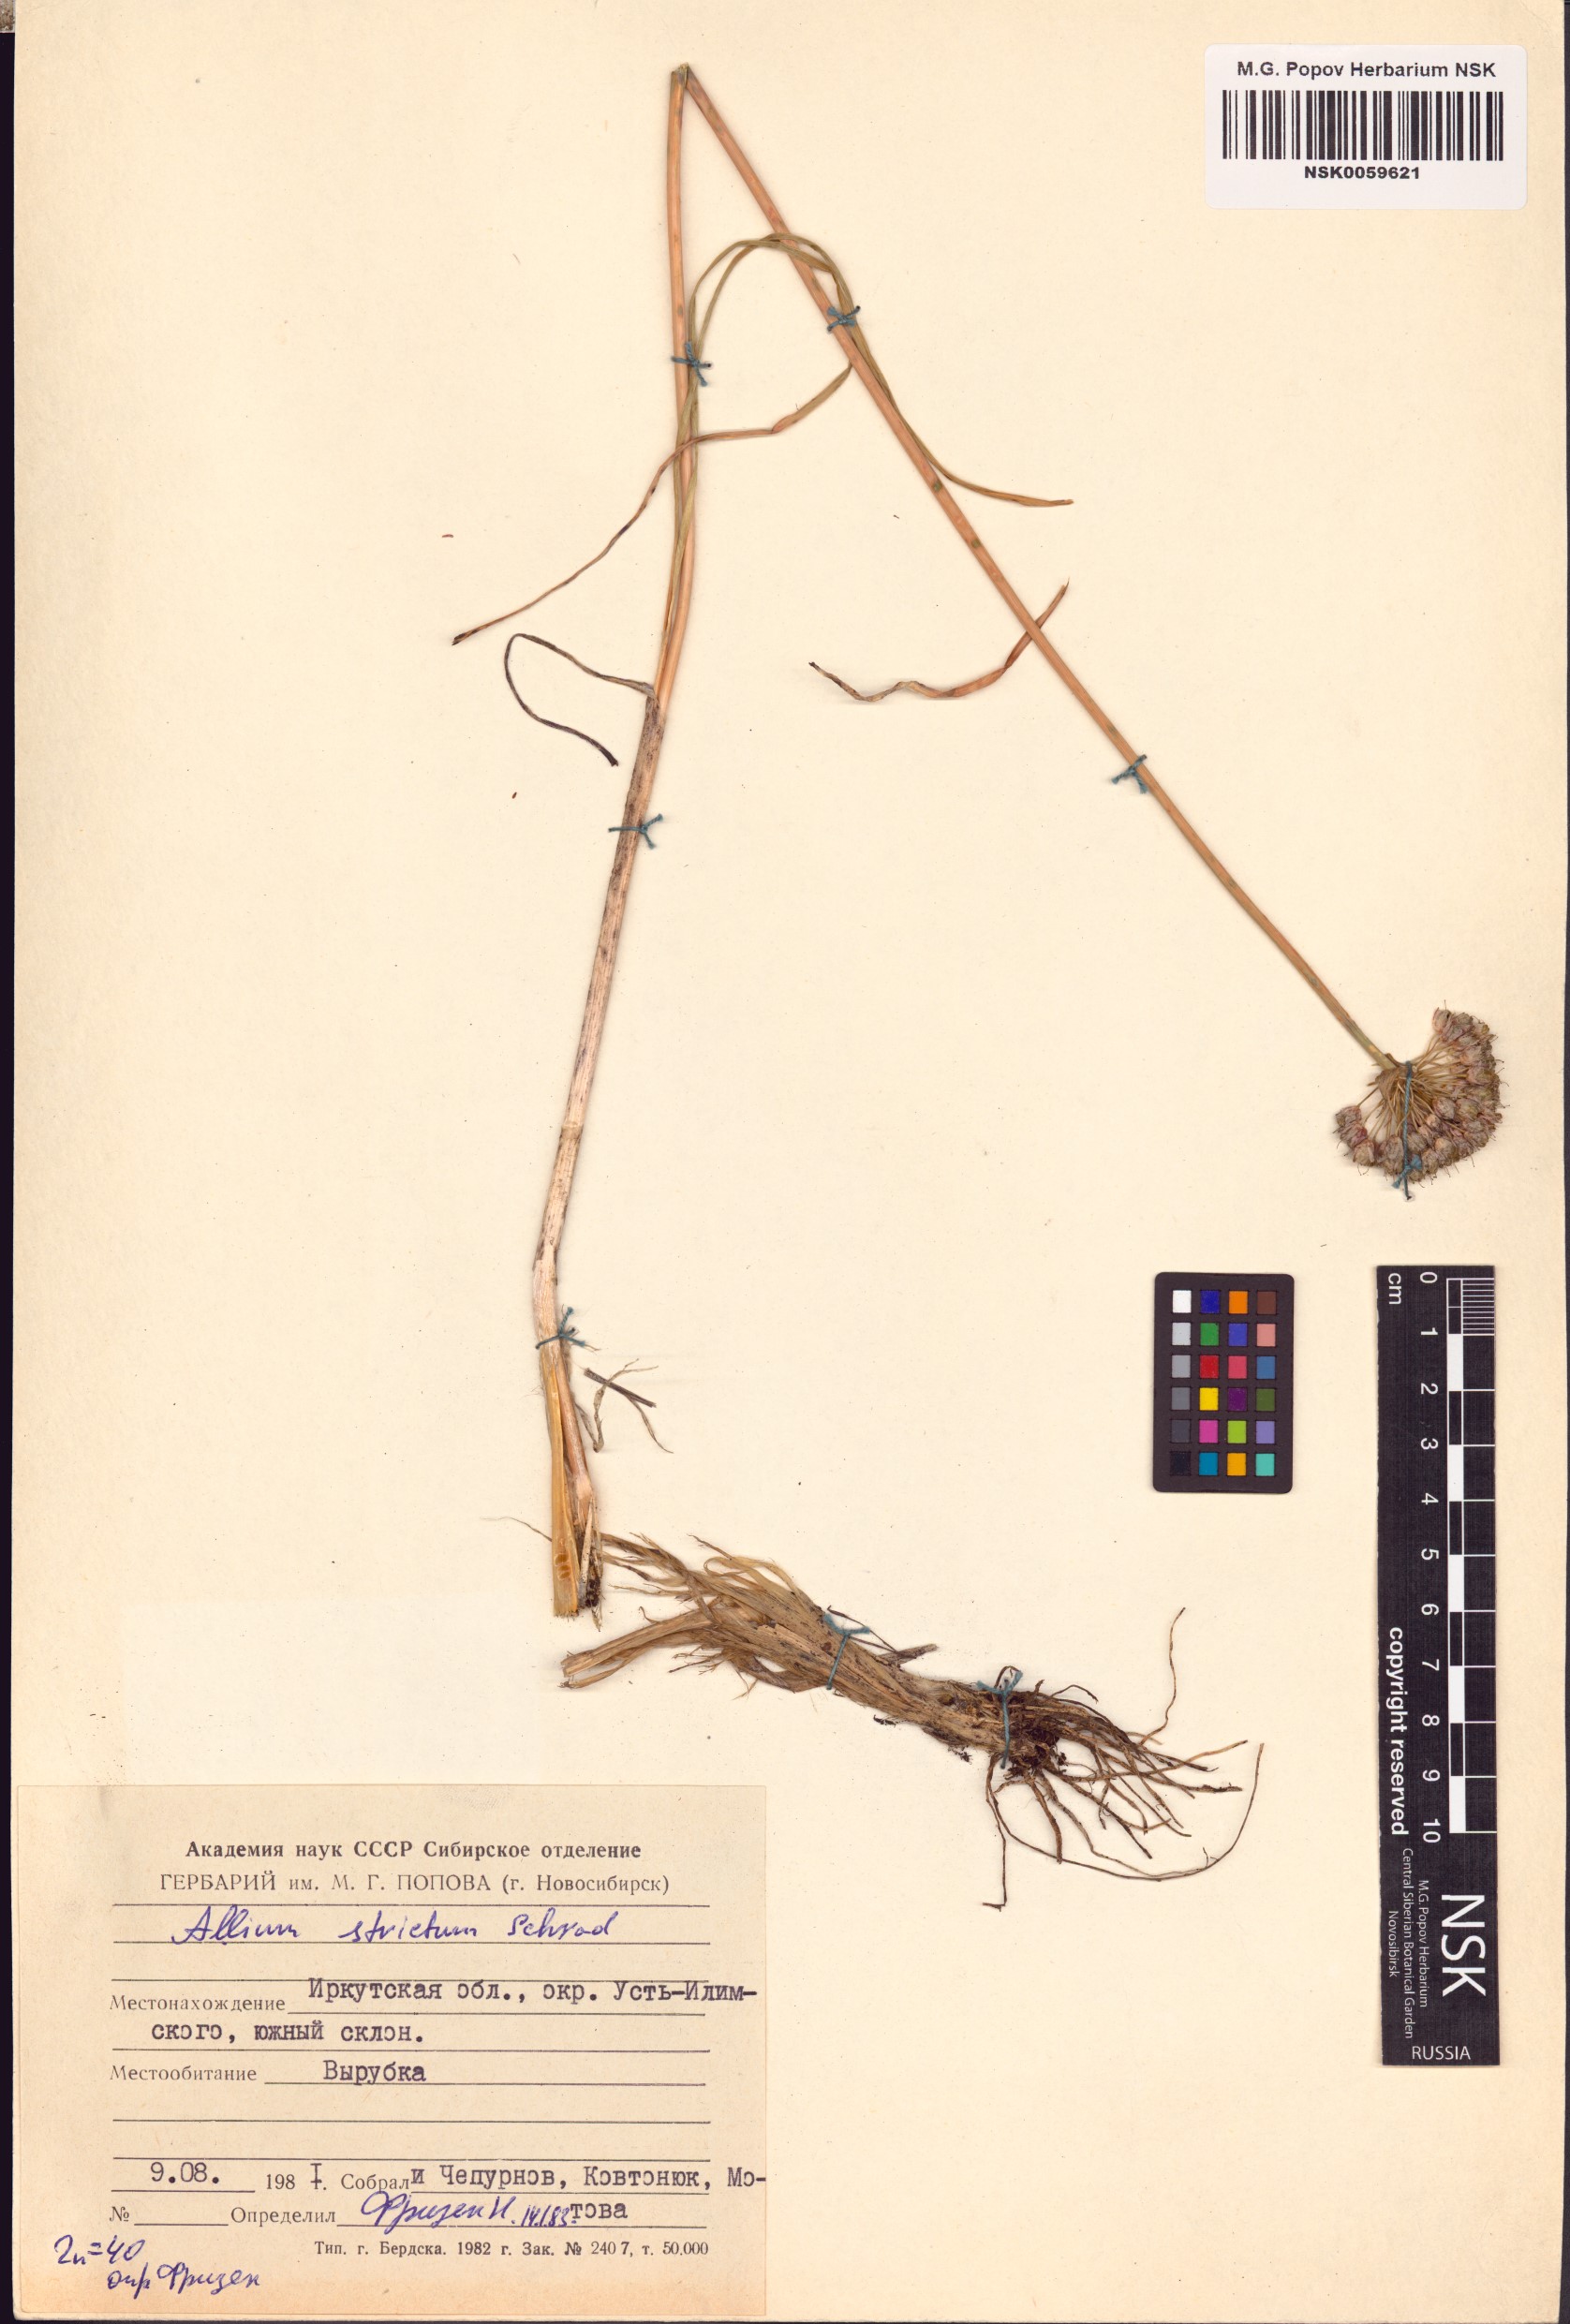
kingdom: Plantae
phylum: Tracheophyta
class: Liliopsida
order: Asparagales
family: Amaryllidaceae
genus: Allium
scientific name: Allium strictum
